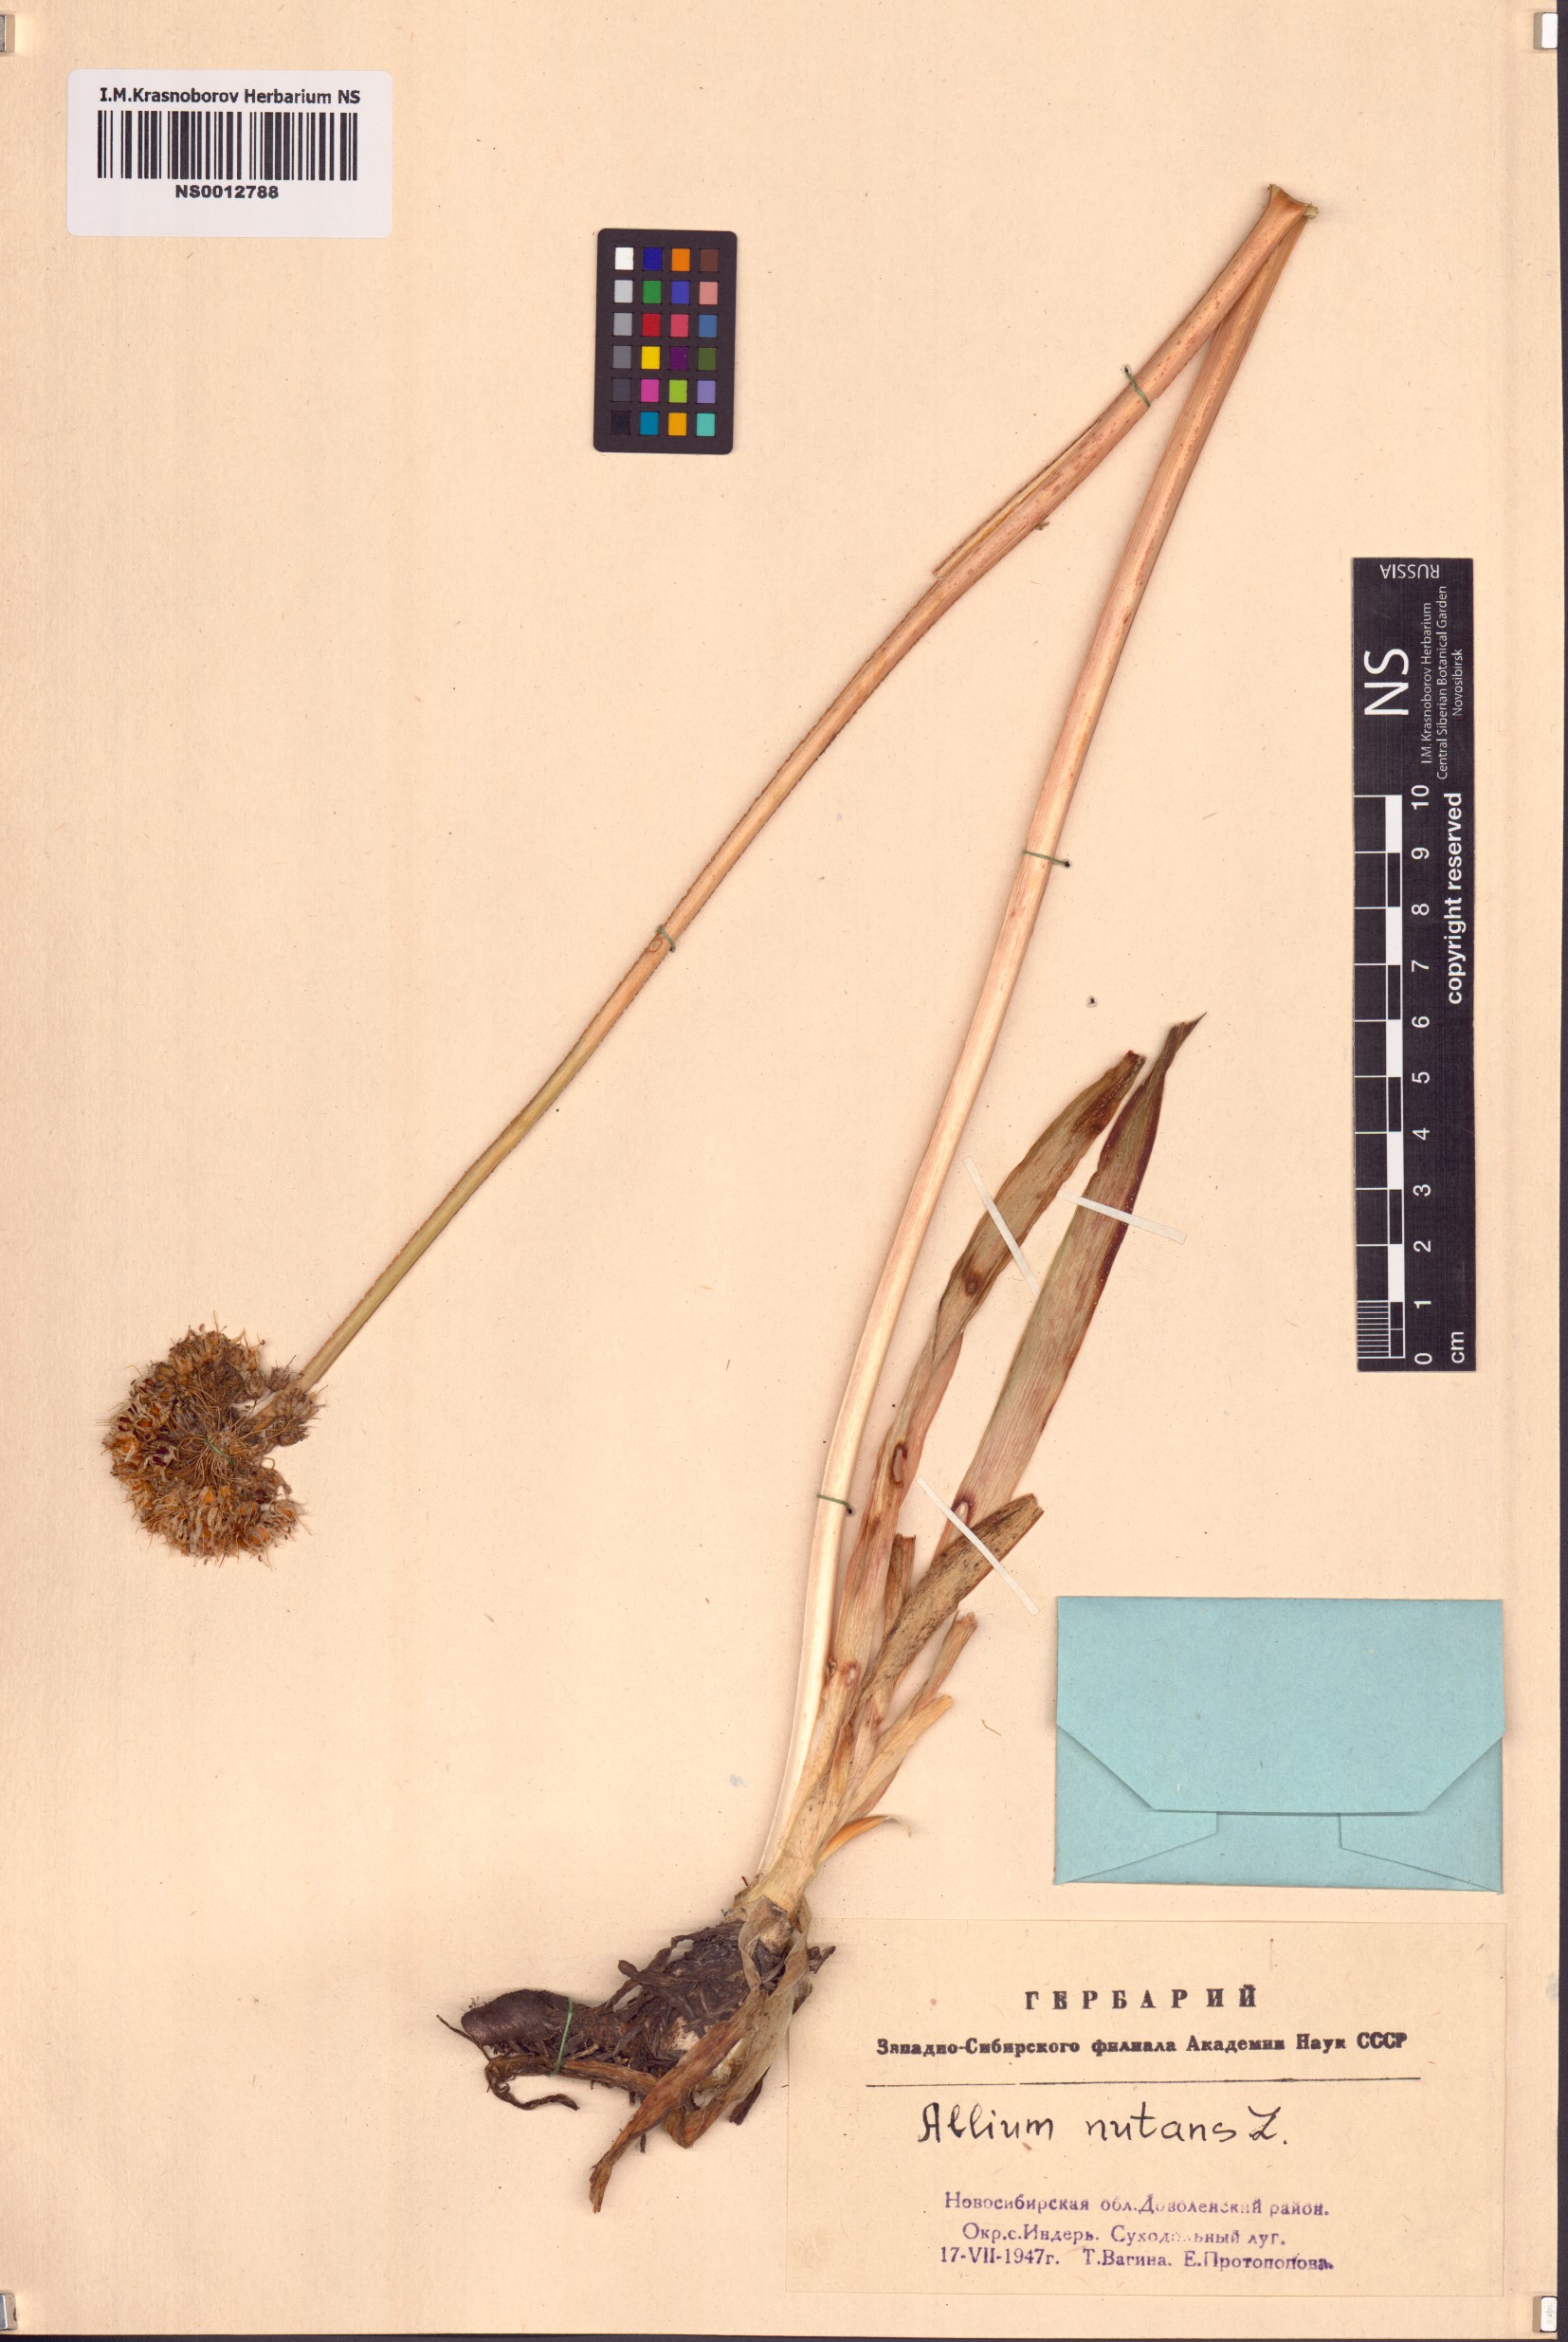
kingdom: Plantae
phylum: Tracheophyta
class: Liliopsida
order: Asparagales
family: Amaryllidaceae
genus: Allium
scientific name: Allium nutans
